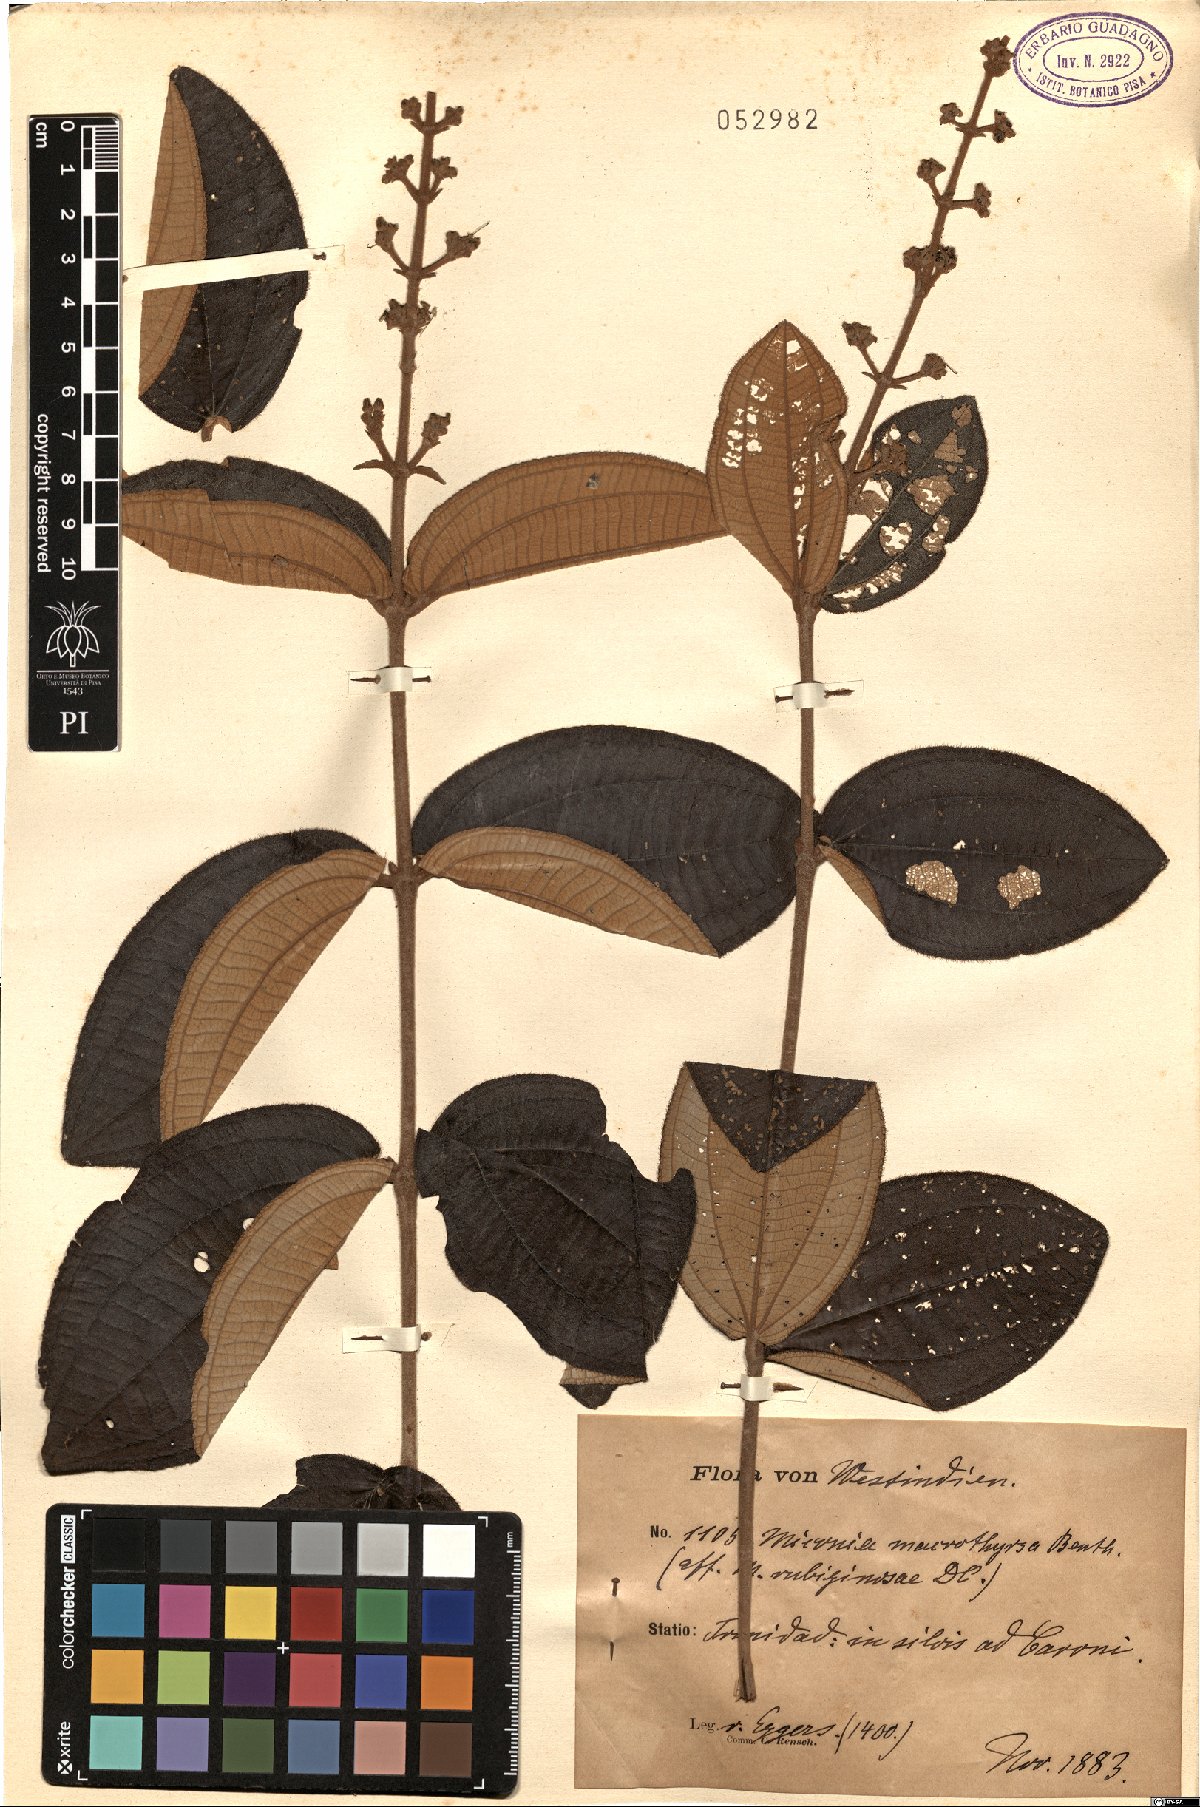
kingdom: Plantae
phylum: Tracheophyta
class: Magnoliopsida
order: Myrtales
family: Melastomataceae
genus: Miconia
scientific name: Miconia macrothyrsa
